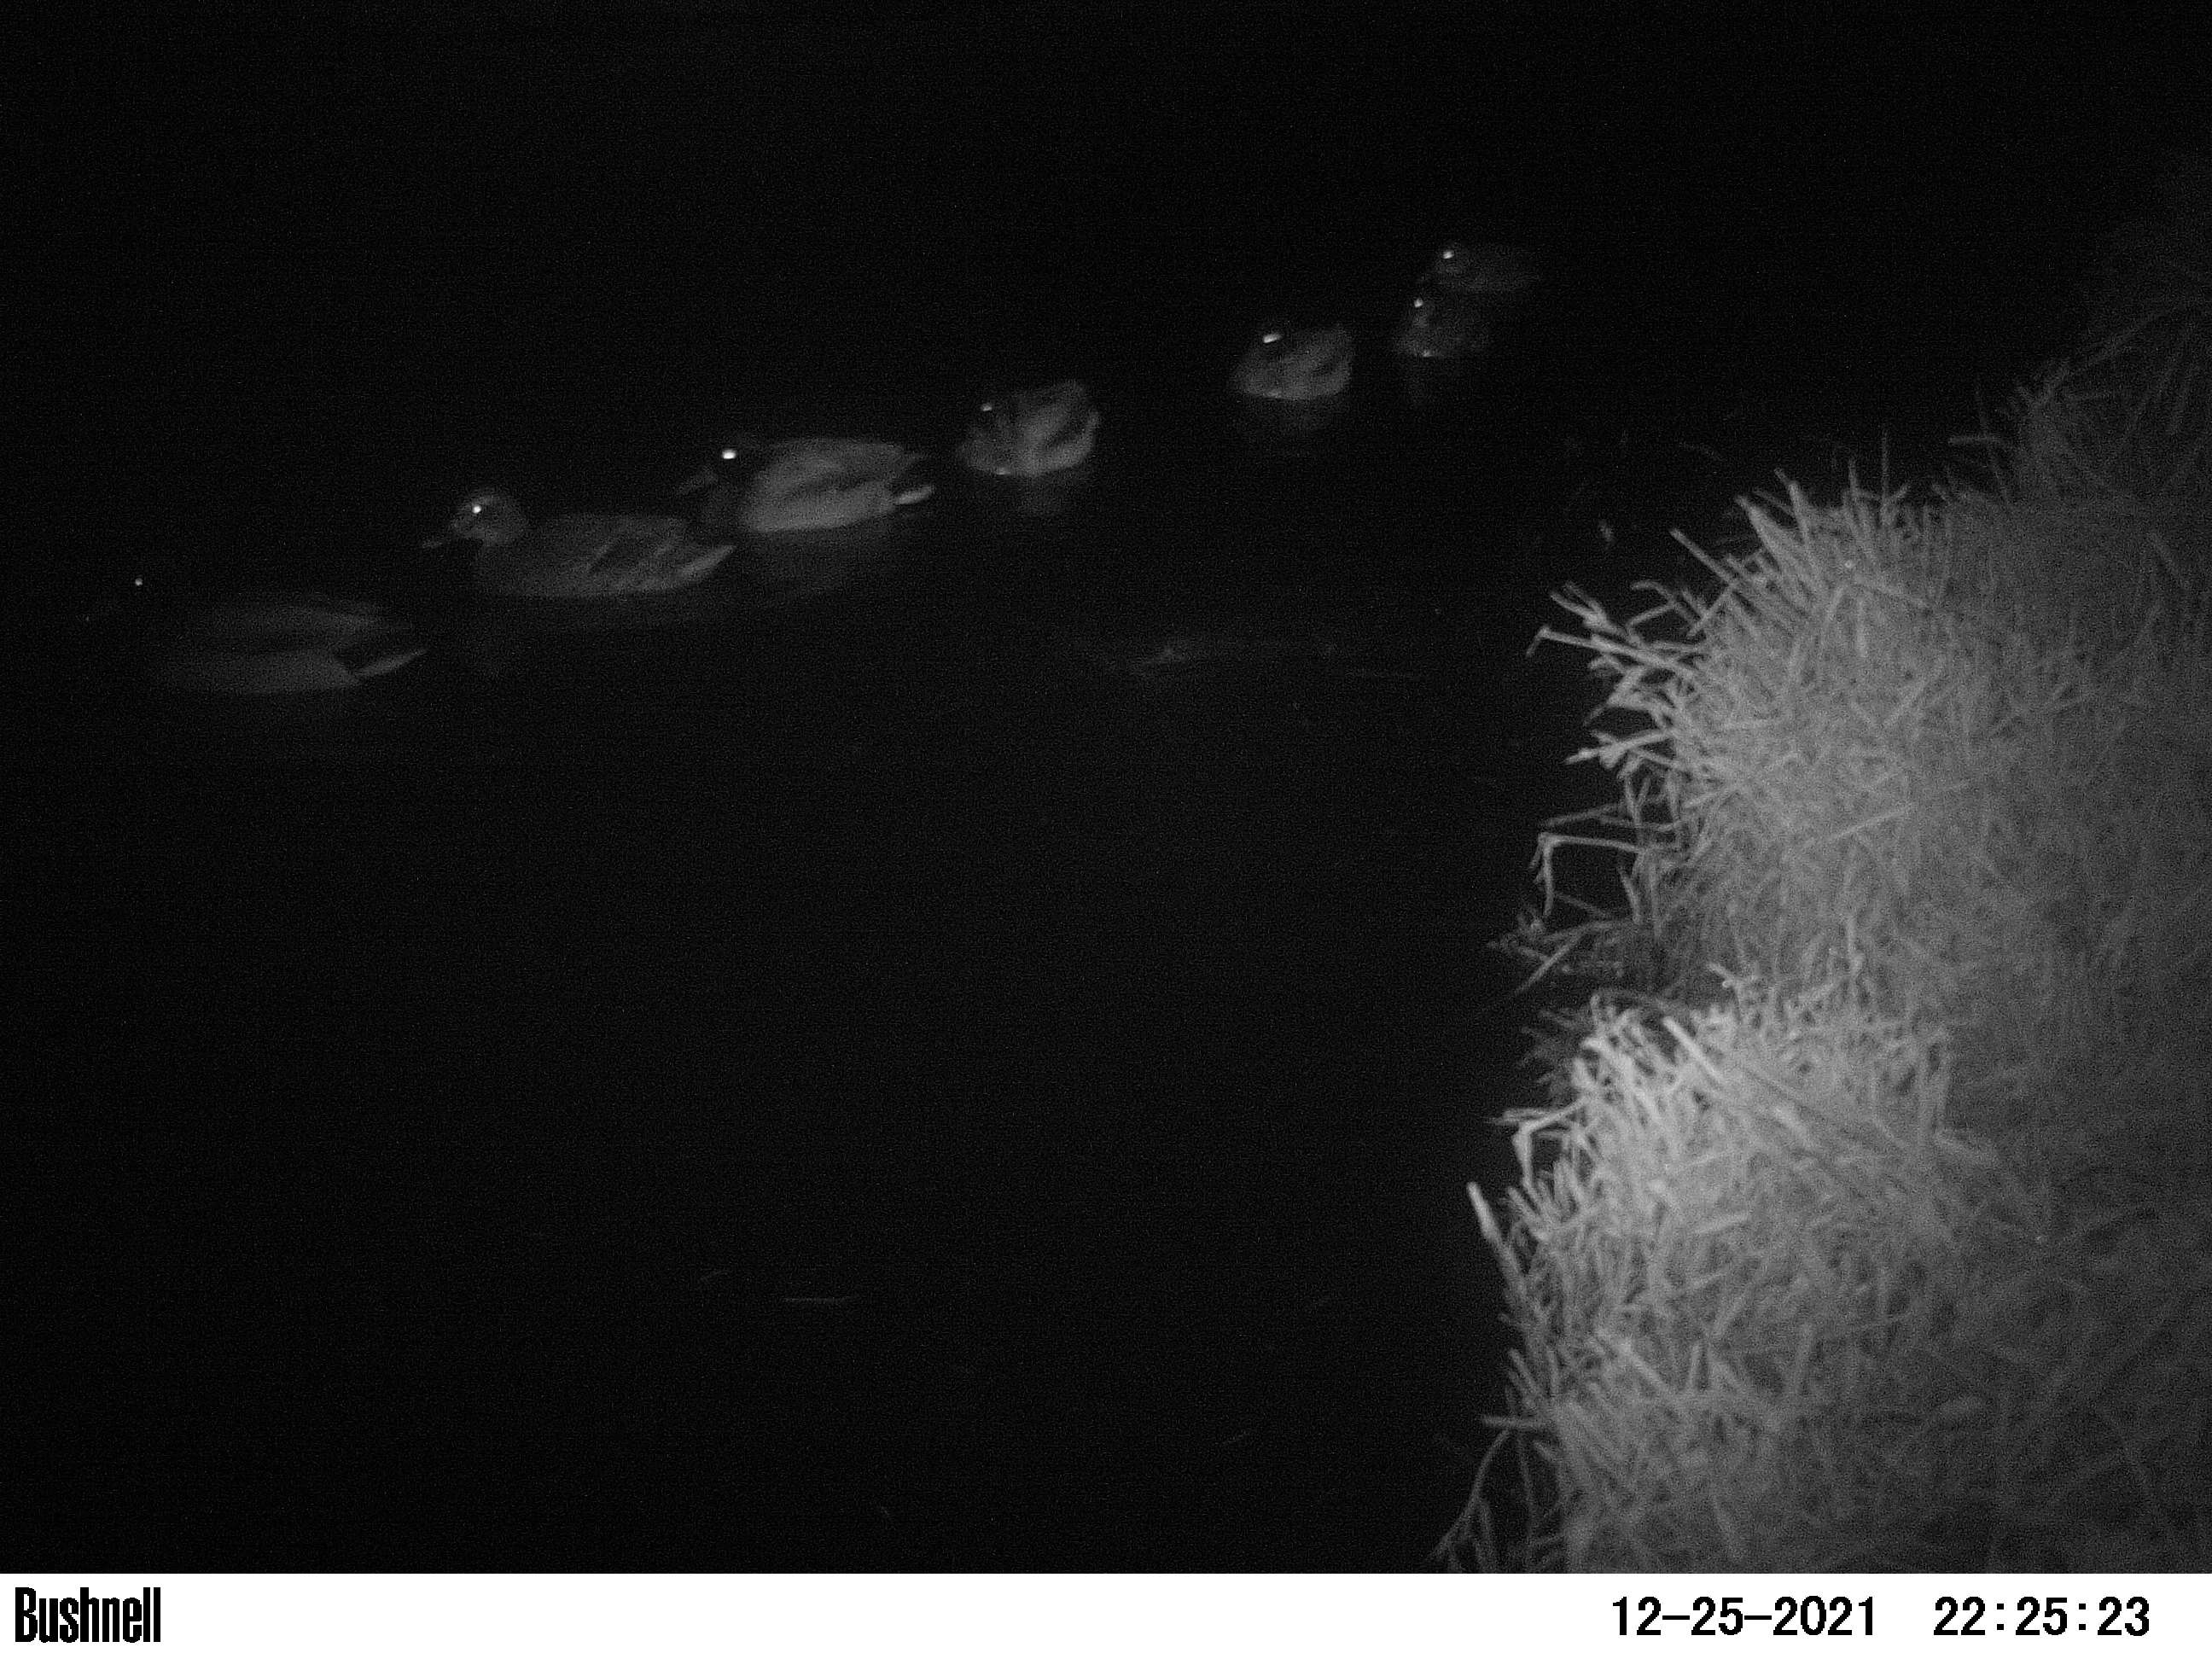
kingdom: Animalia
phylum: Chordata
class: Aves
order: Anseriformes
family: Anatidae
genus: Anas
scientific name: Anas
